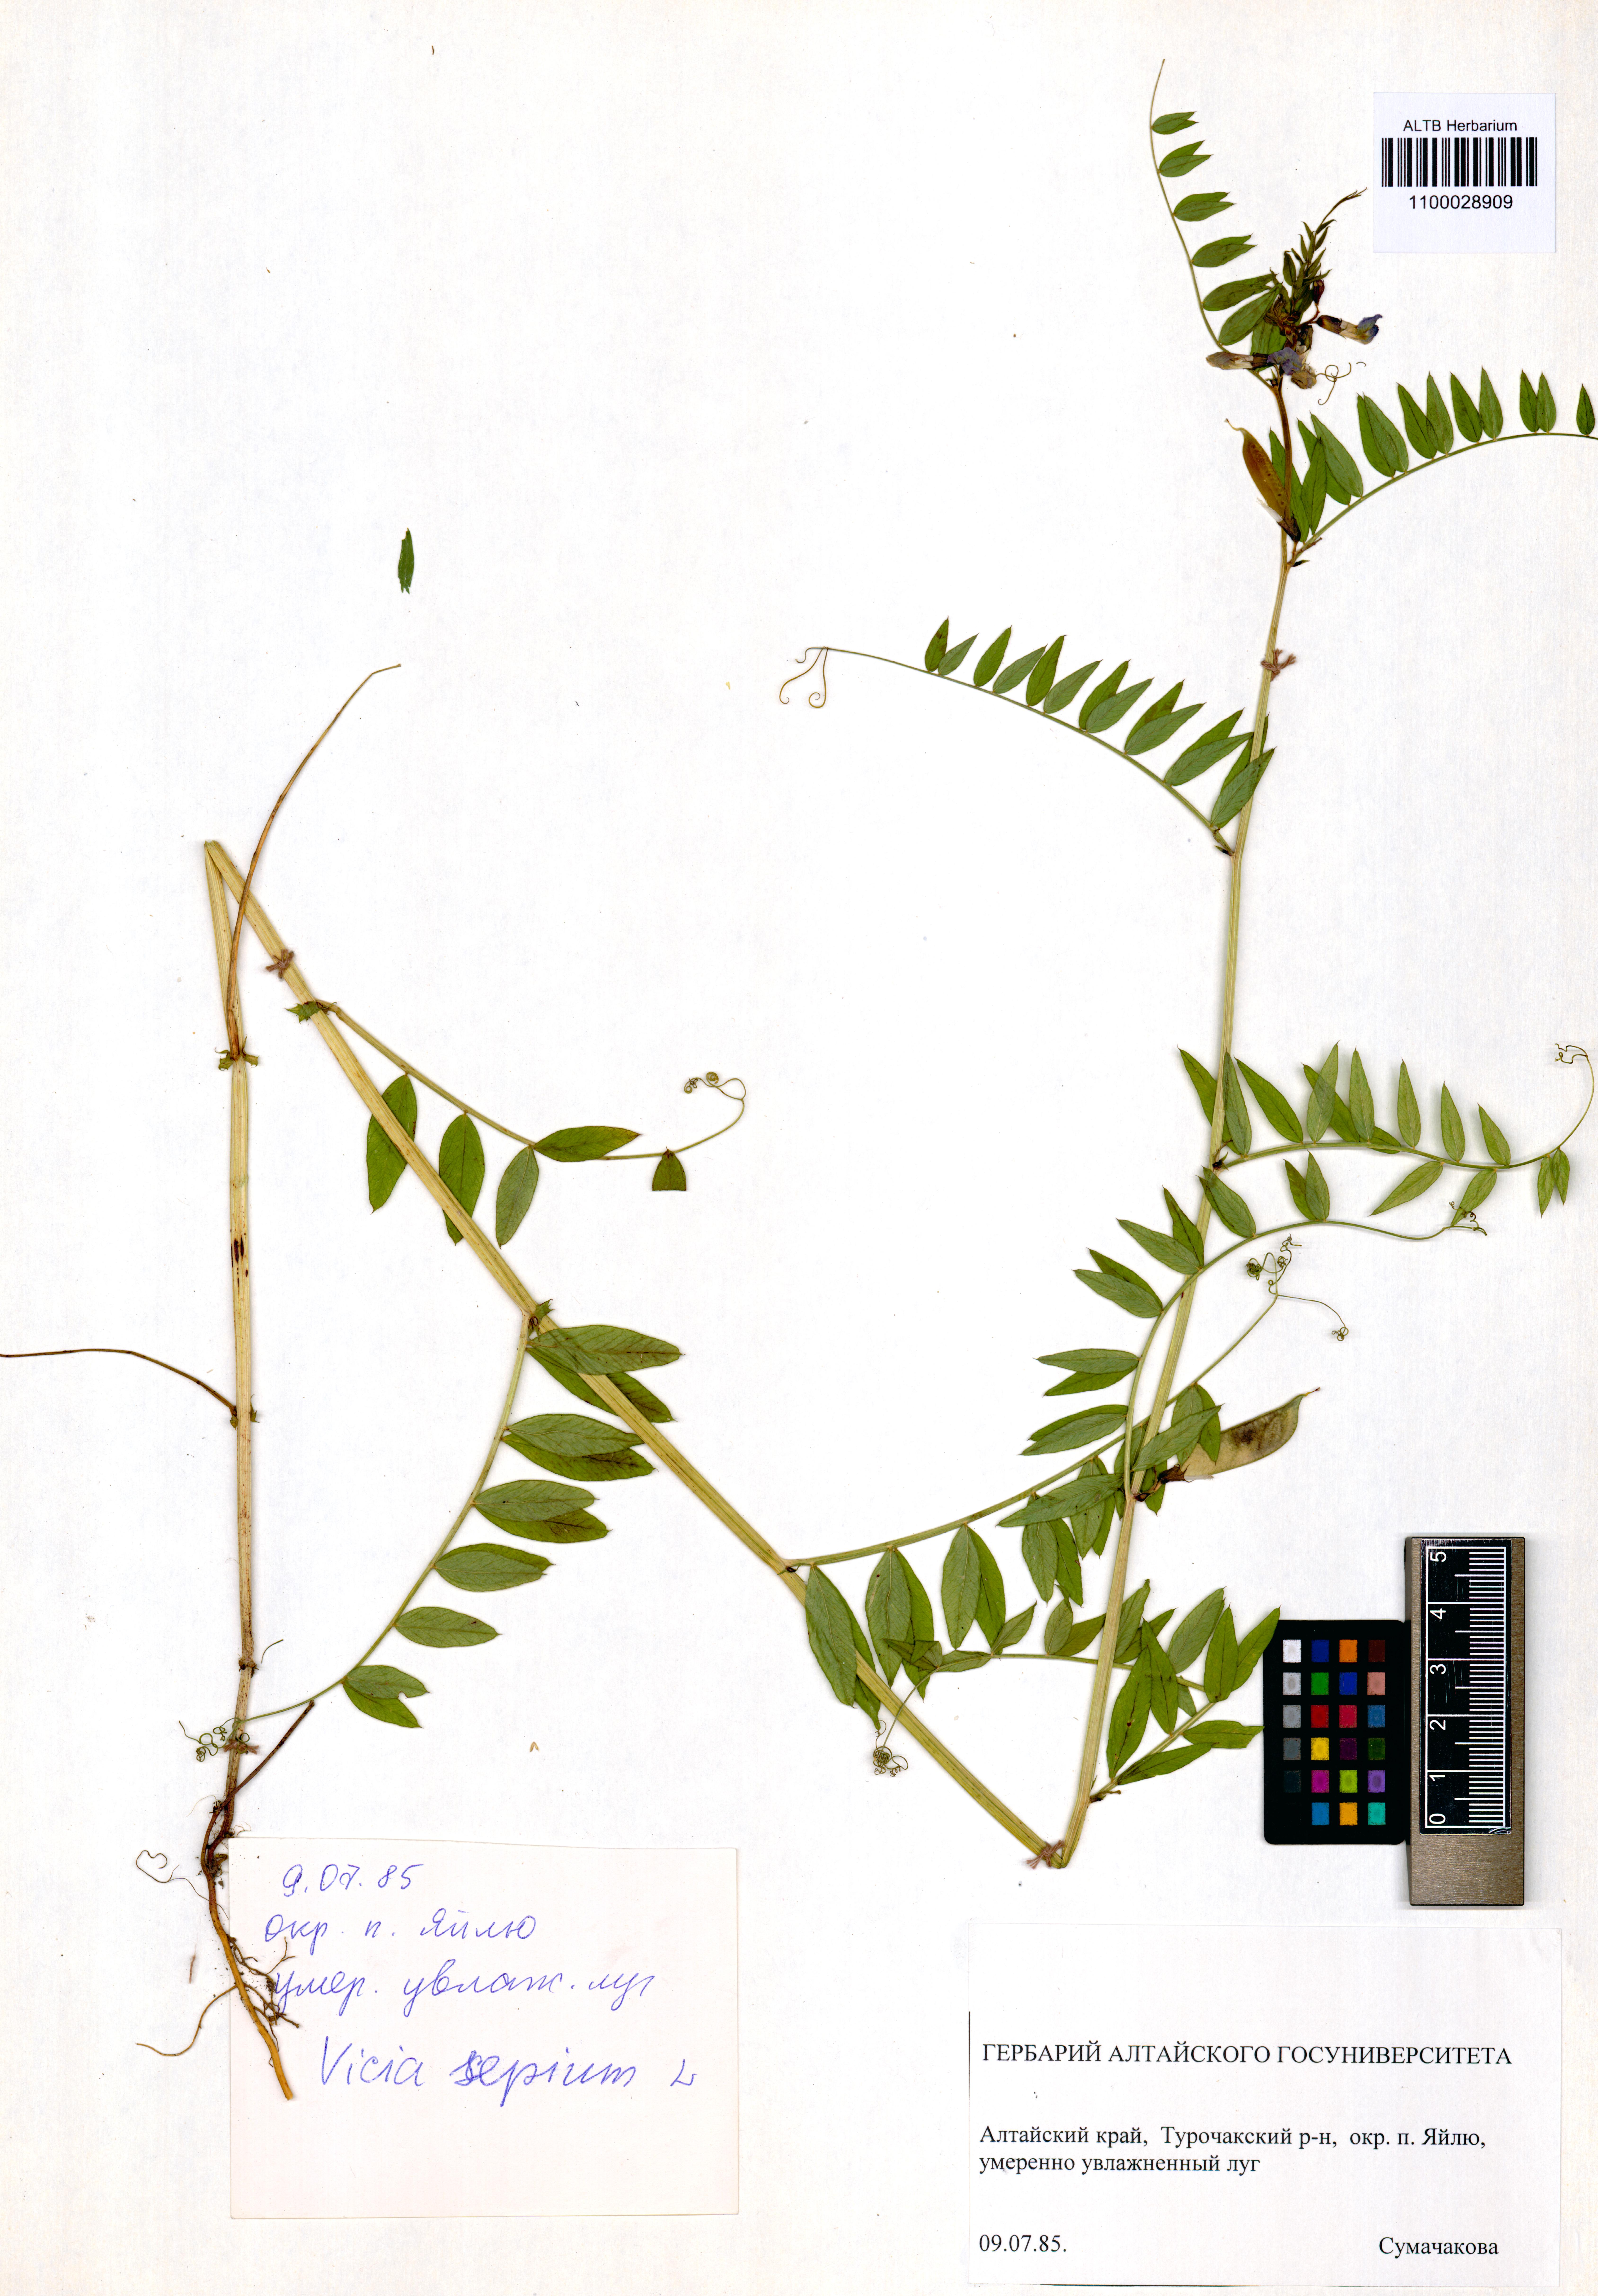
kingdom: Plantae
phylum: Tracheophyta
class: Magnoliopsida
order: Fabales
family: Fabaceae
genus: Vicia
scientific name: Vicia sepium
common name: Bush vetch
